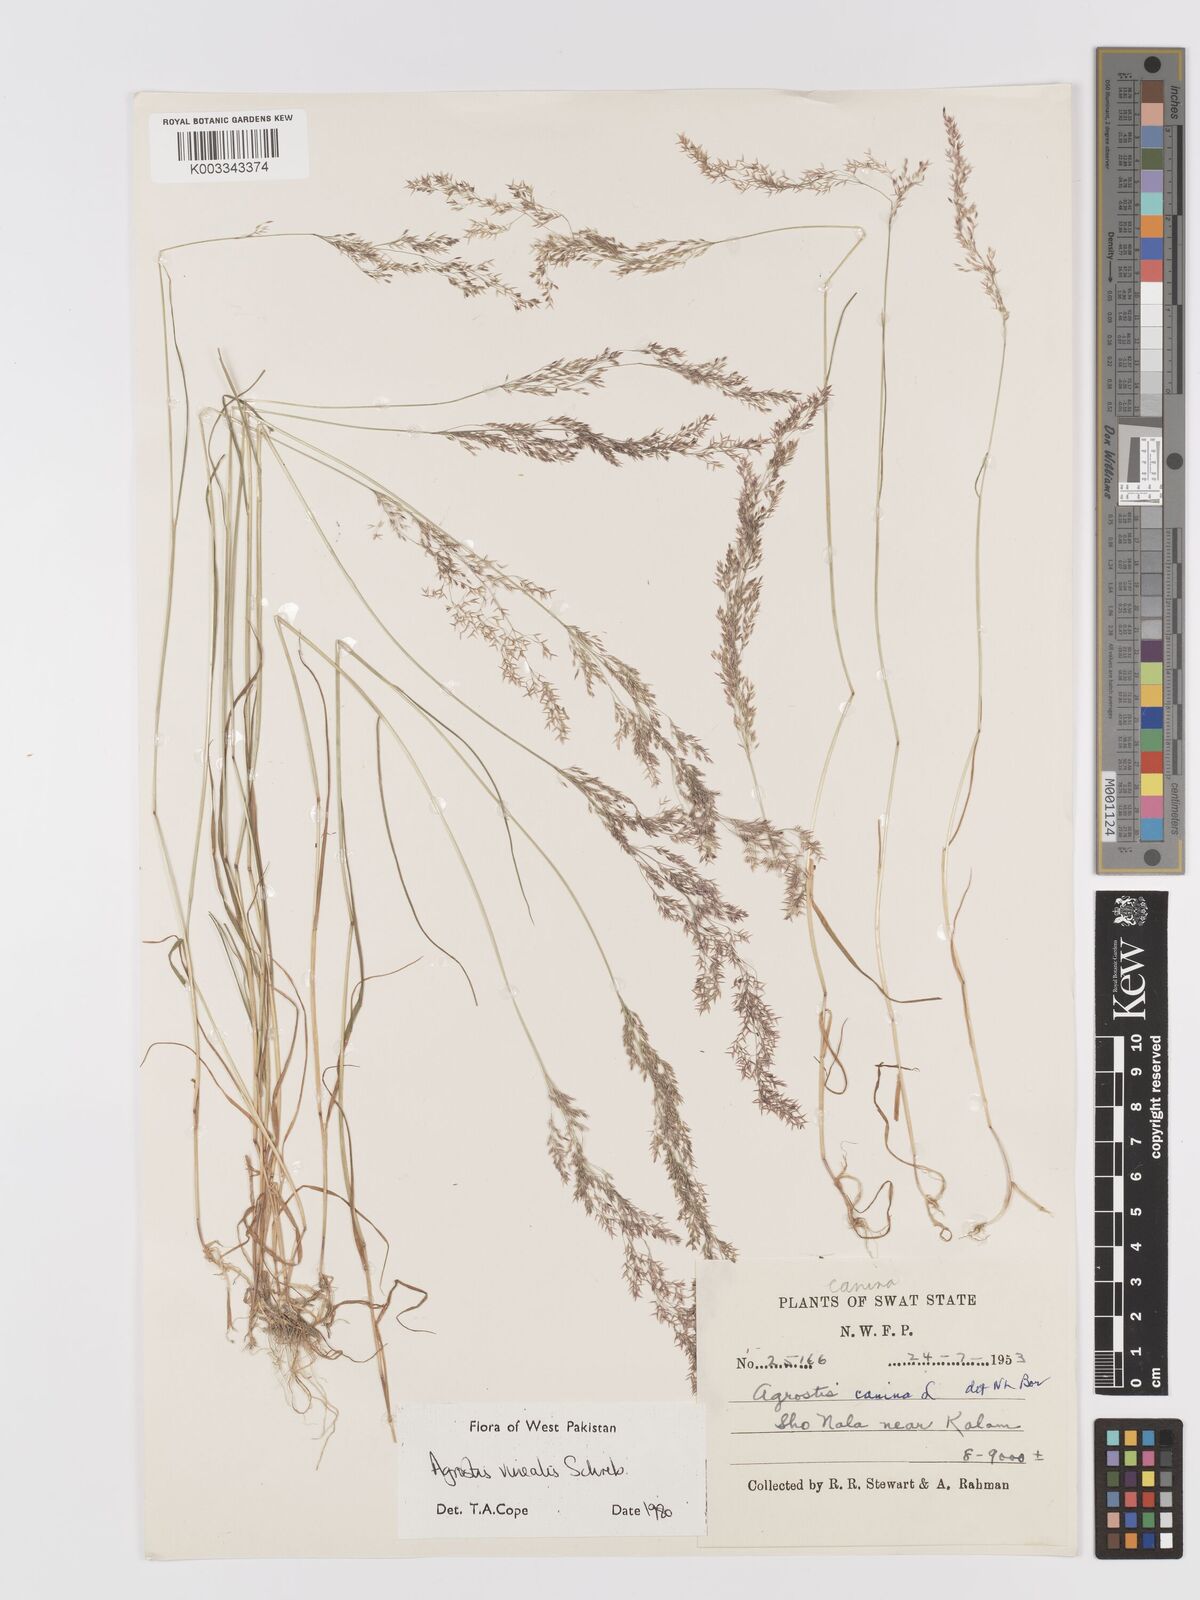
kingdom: Plantae
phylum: Tracheophyta
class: Liliopsida
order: Poales
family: Poaceae
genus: Agrostis
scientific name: Agrostis vinealis
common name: Brown bent
